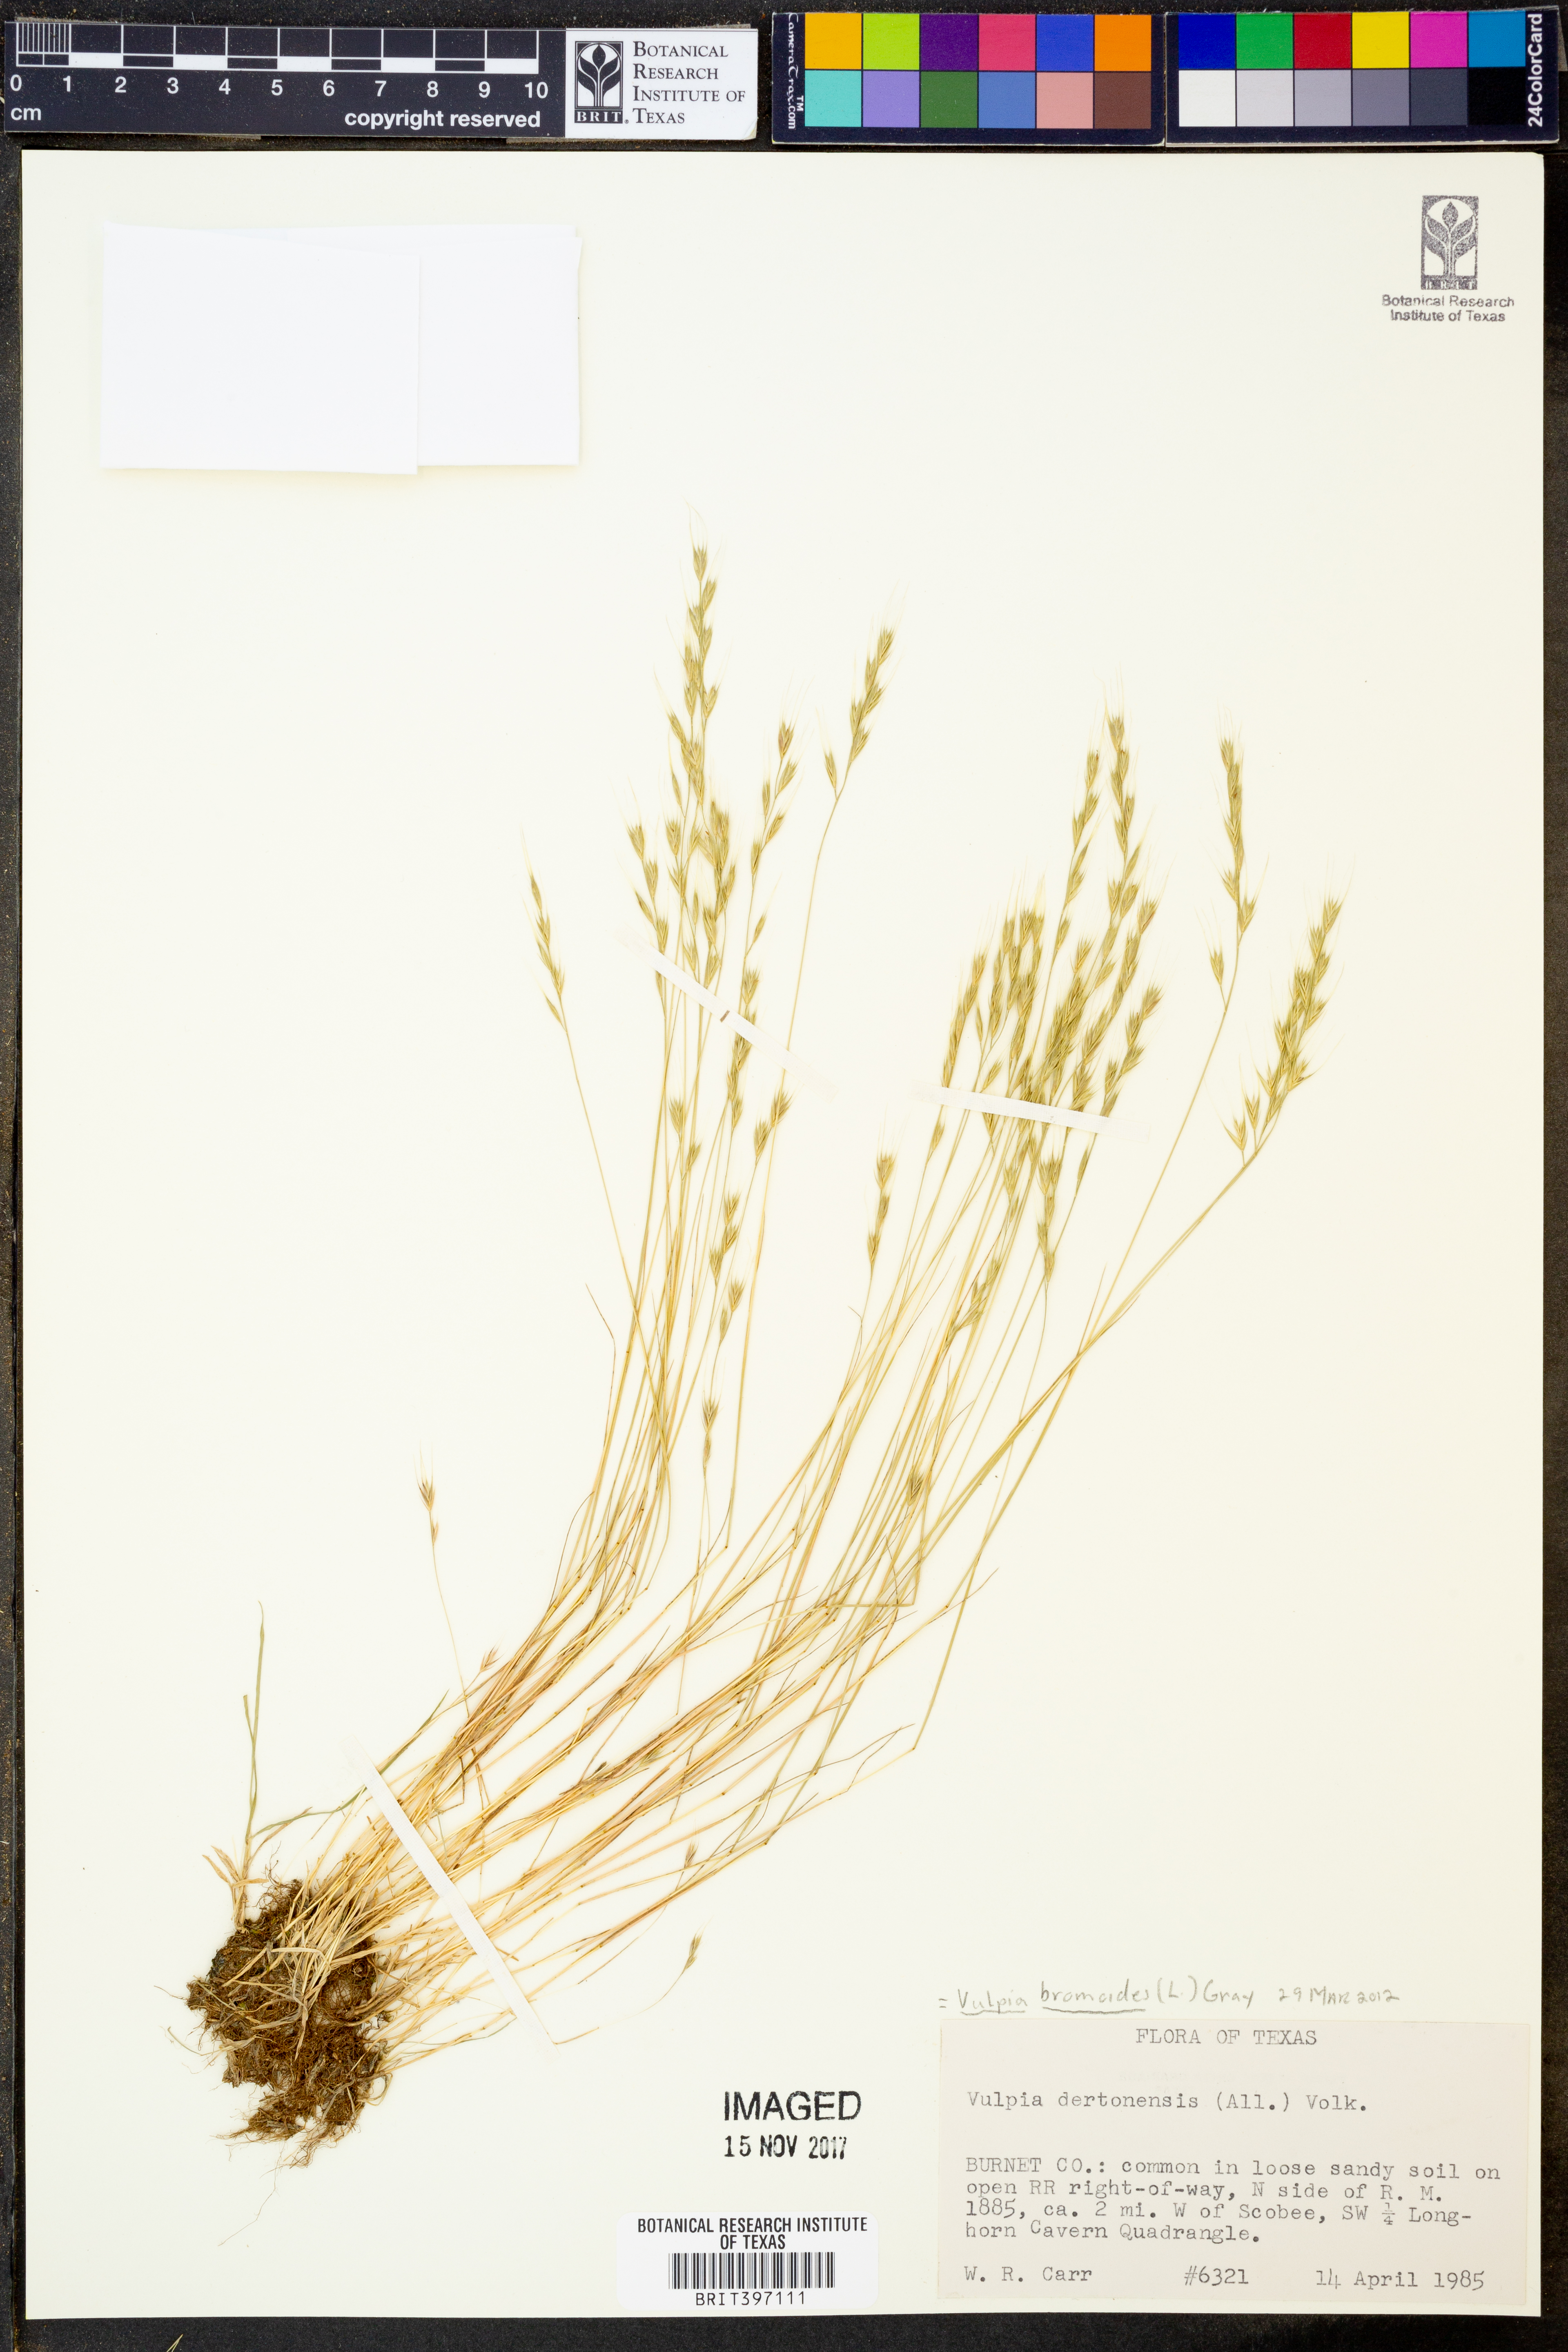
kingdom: Plantae
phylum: Tracheophyta
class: Liliopsida
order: Poales
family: Poaceae
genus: Festuca
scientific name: Festuca bromoides
